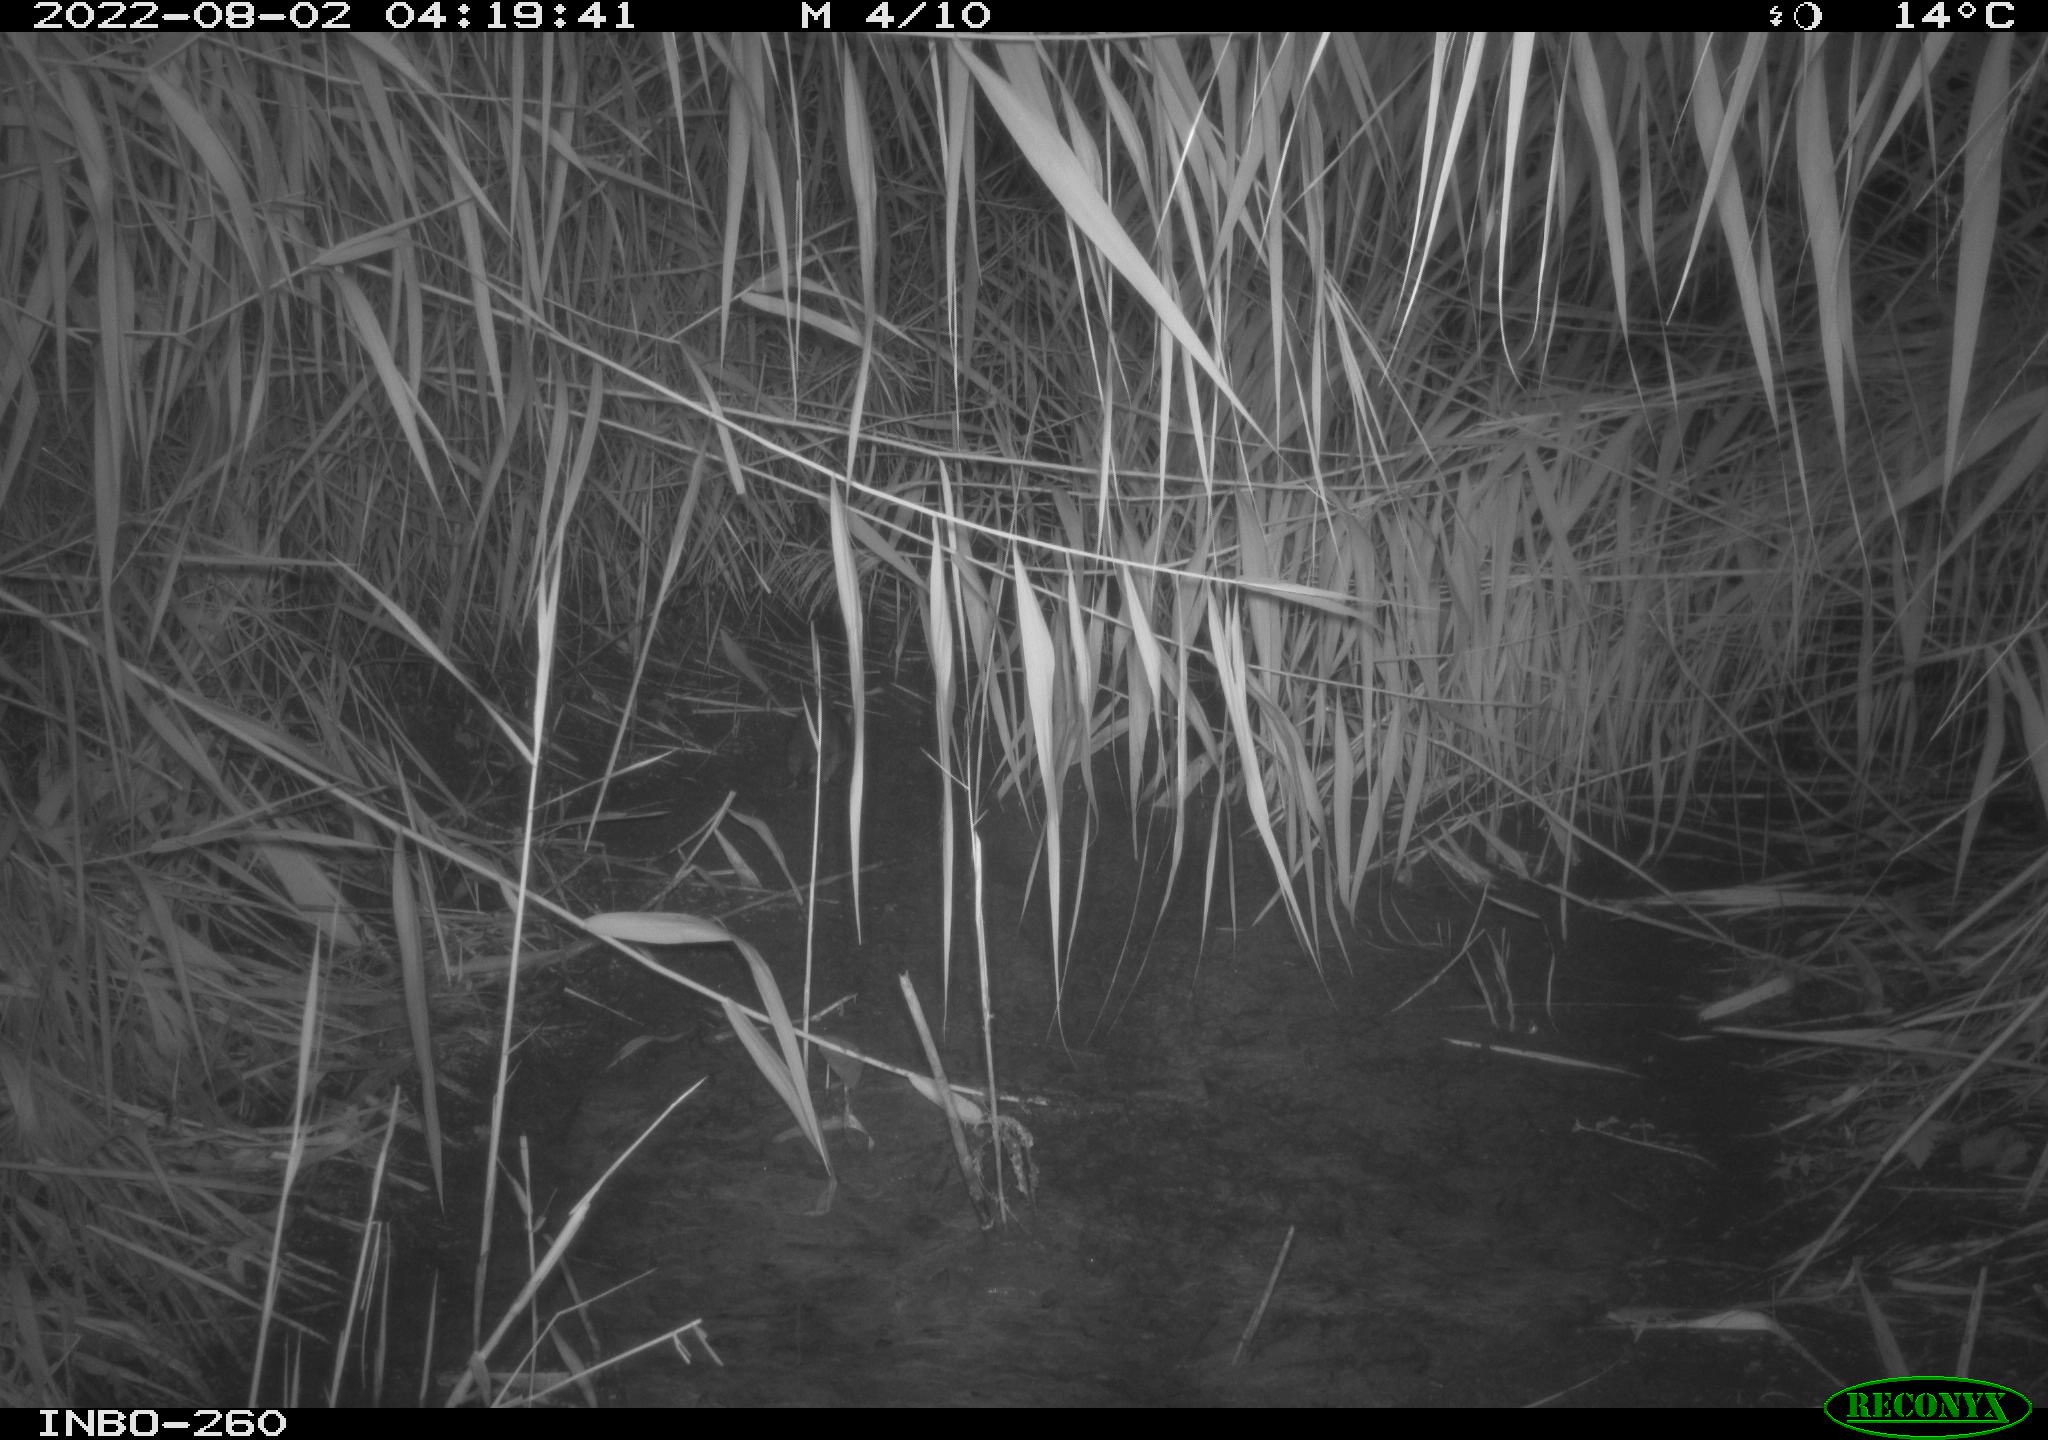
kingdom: Animalia
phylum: Chordata
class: Mammalia
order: Rodentia
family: Muridae
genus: Rattus
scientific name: Rattus norvegicus
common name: Brown rat
